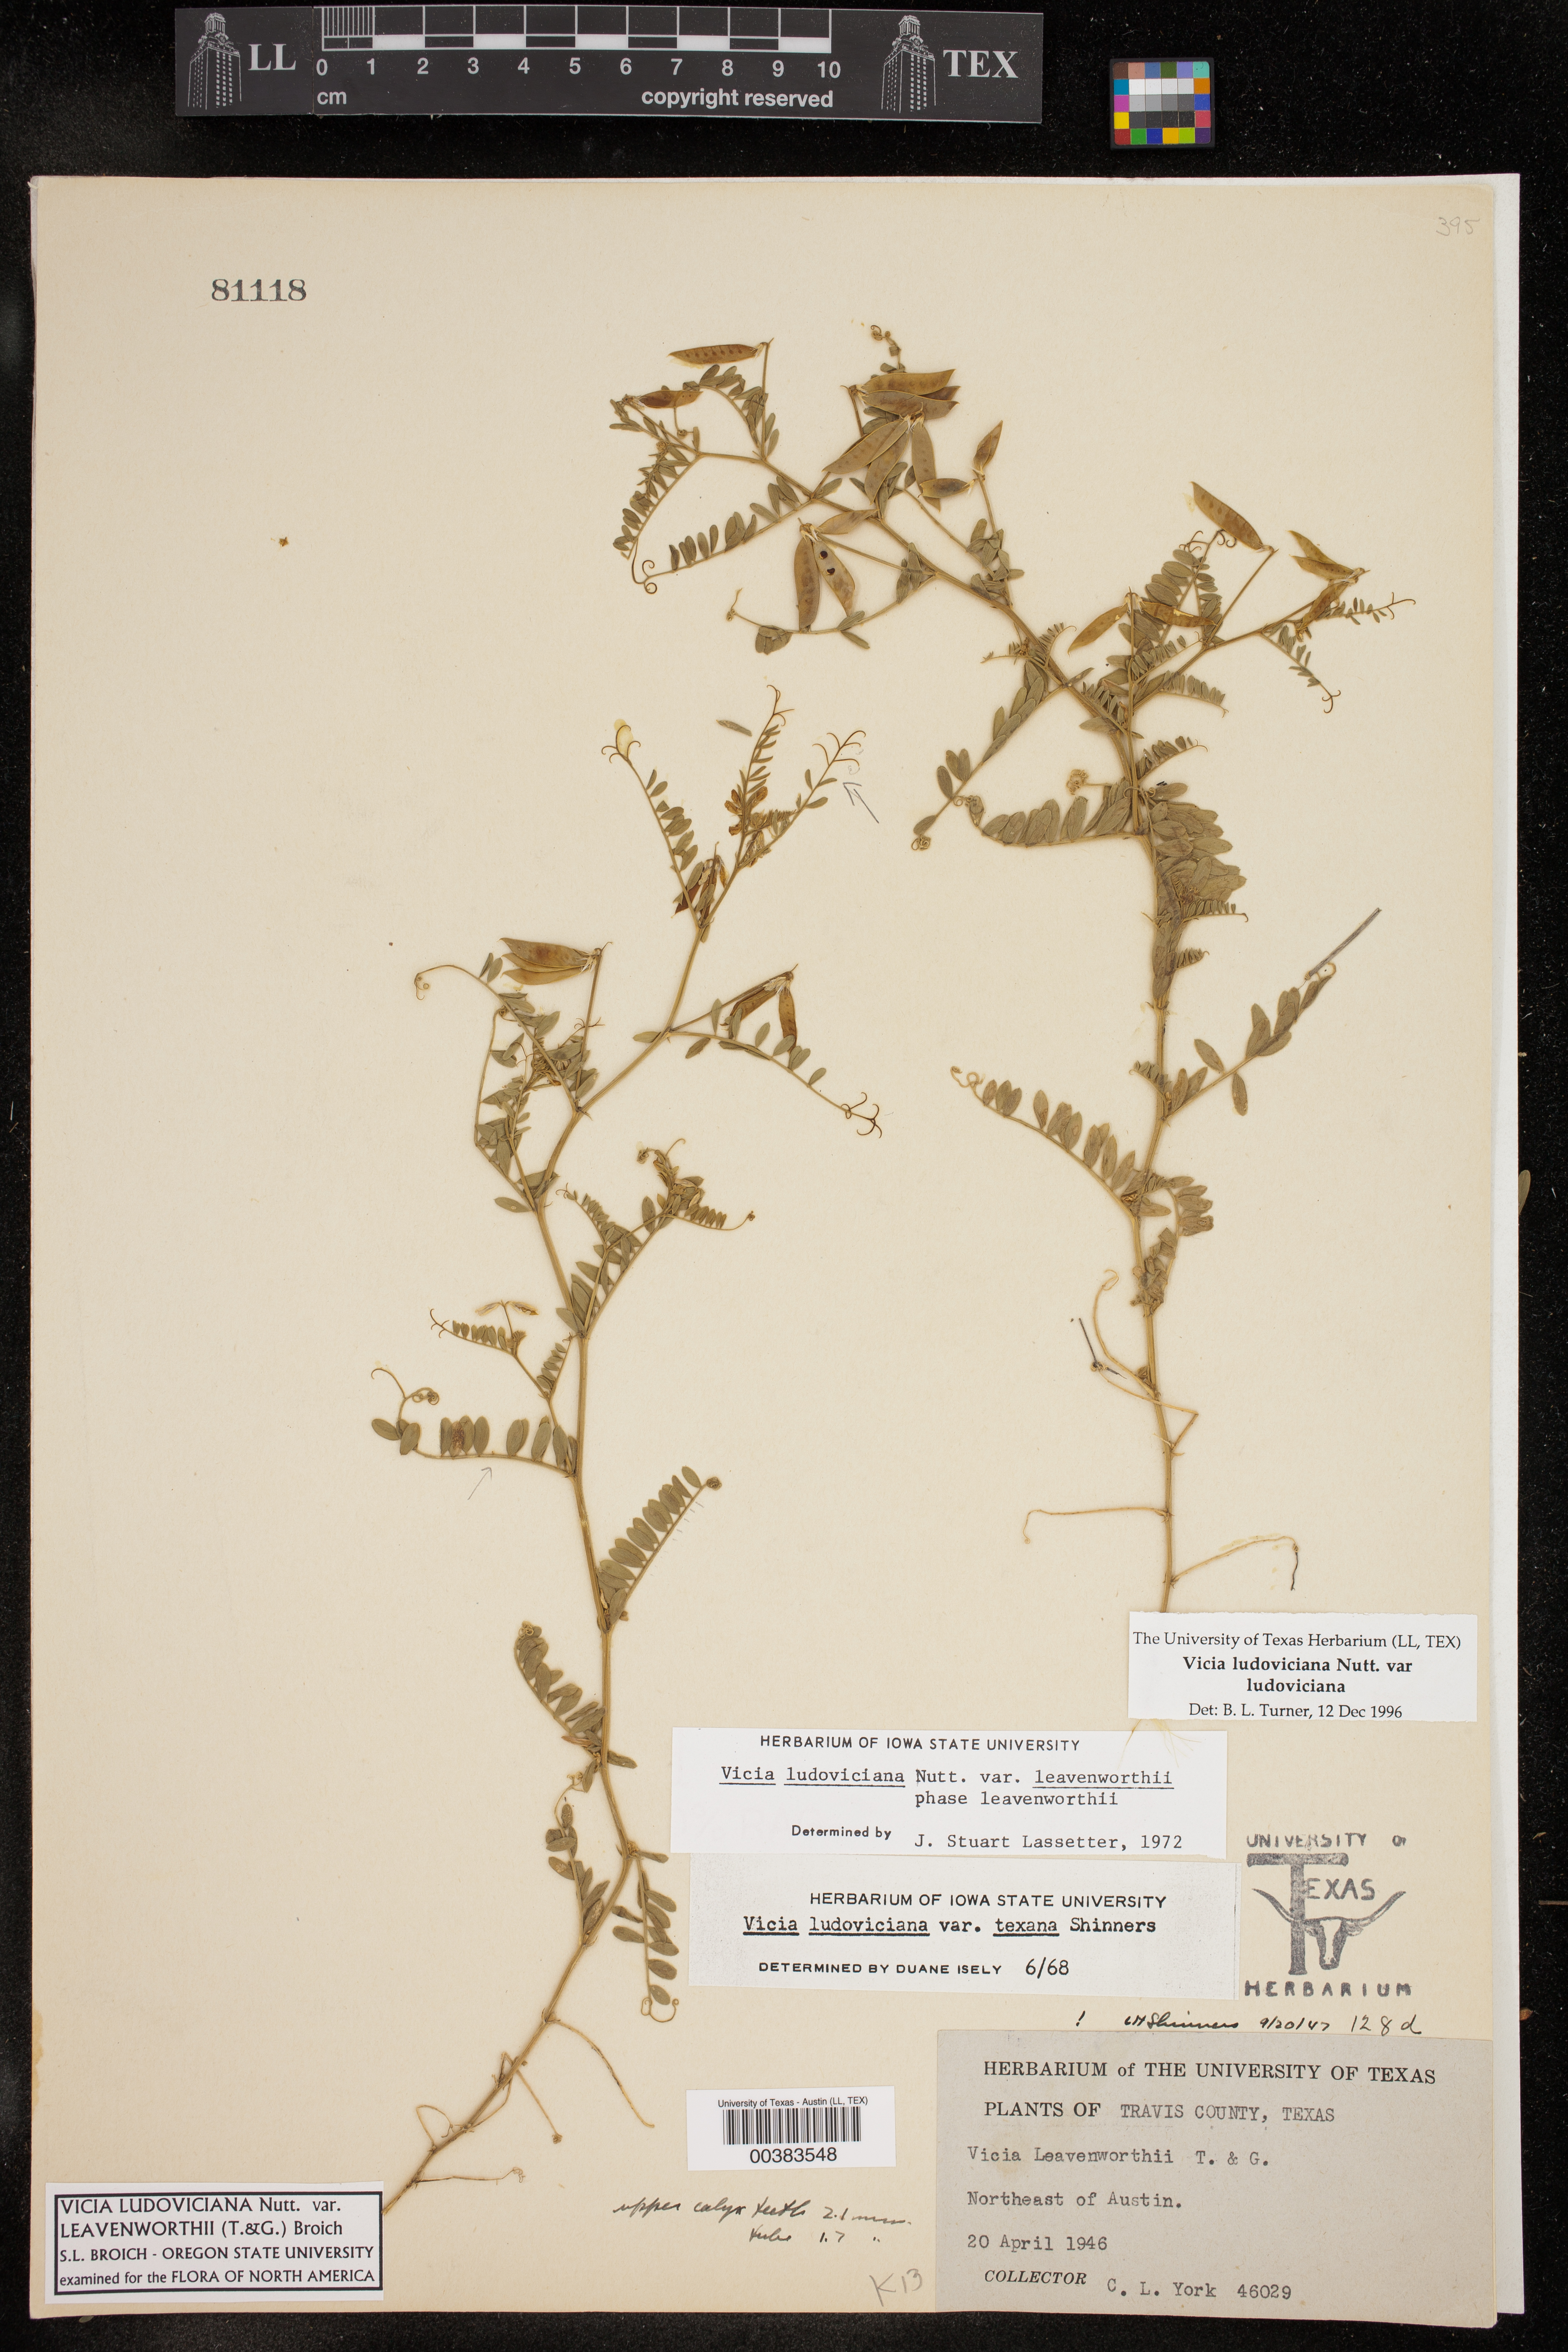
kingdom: Plantae
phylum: Tracheophyta
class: Magnoliopsida
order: Fabales
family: Fabaceae
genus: Vicia
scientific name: Vicia ludoviciana
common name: Louisiana vetch
